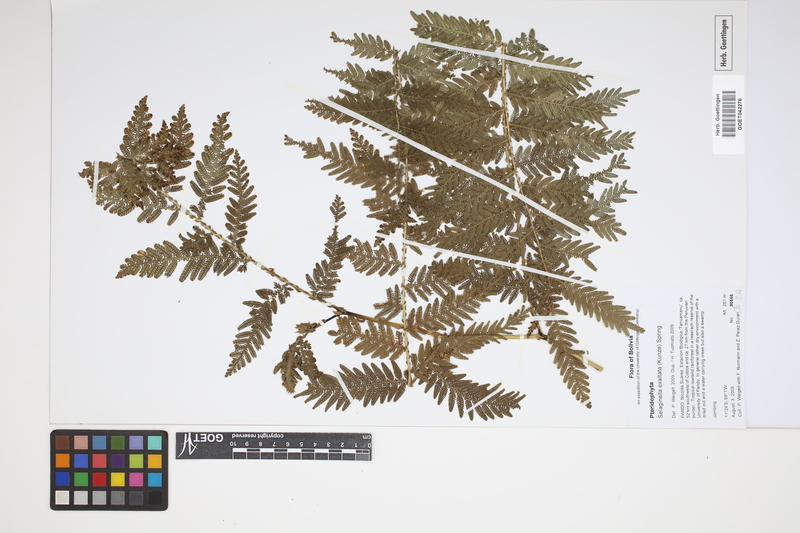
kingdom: Plantae
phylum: Tracheophyta
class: Lycopodiopsida
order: Selaginellales
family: Selaginellaceae
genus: Selaginella
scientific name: Selaginella exaltata
